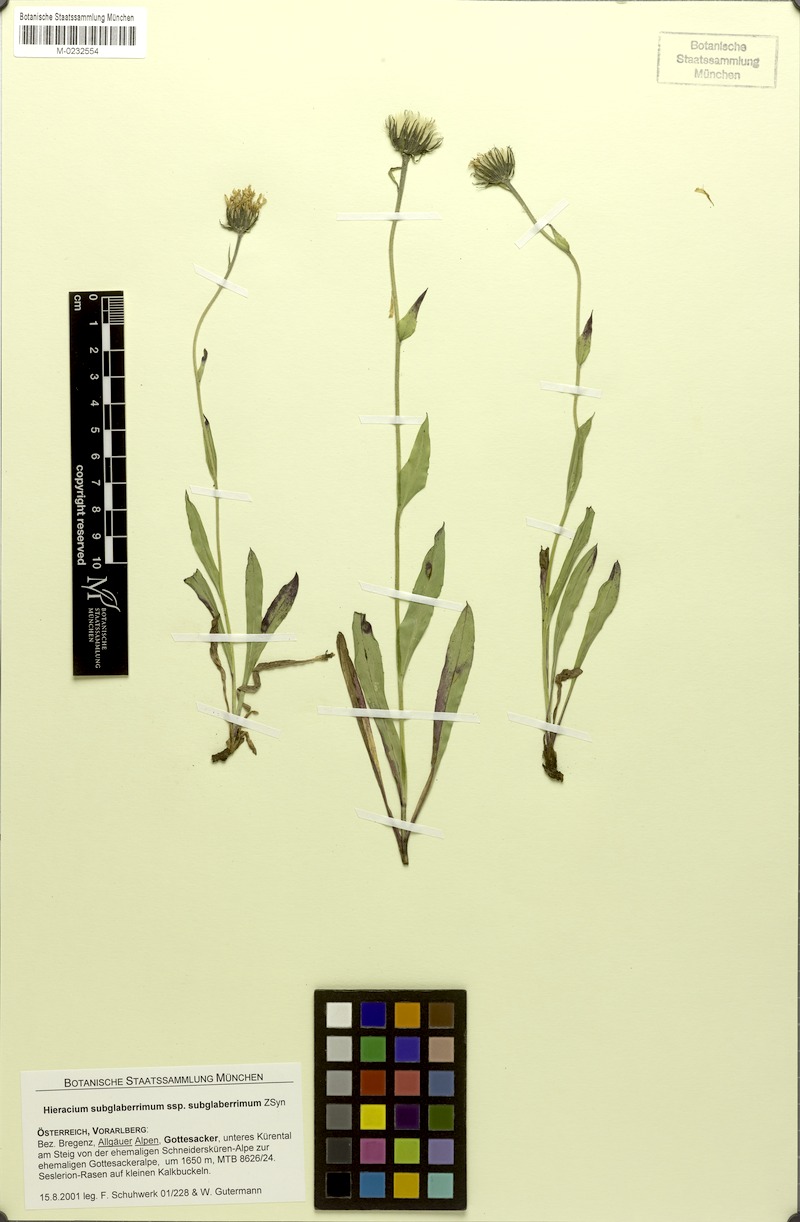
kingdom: Plantae
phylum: Tracheophyta
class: Magnoliopsida
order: Asterales
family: Asteraceae
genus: Hieracium
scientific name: Hieracium subglaberrimum
